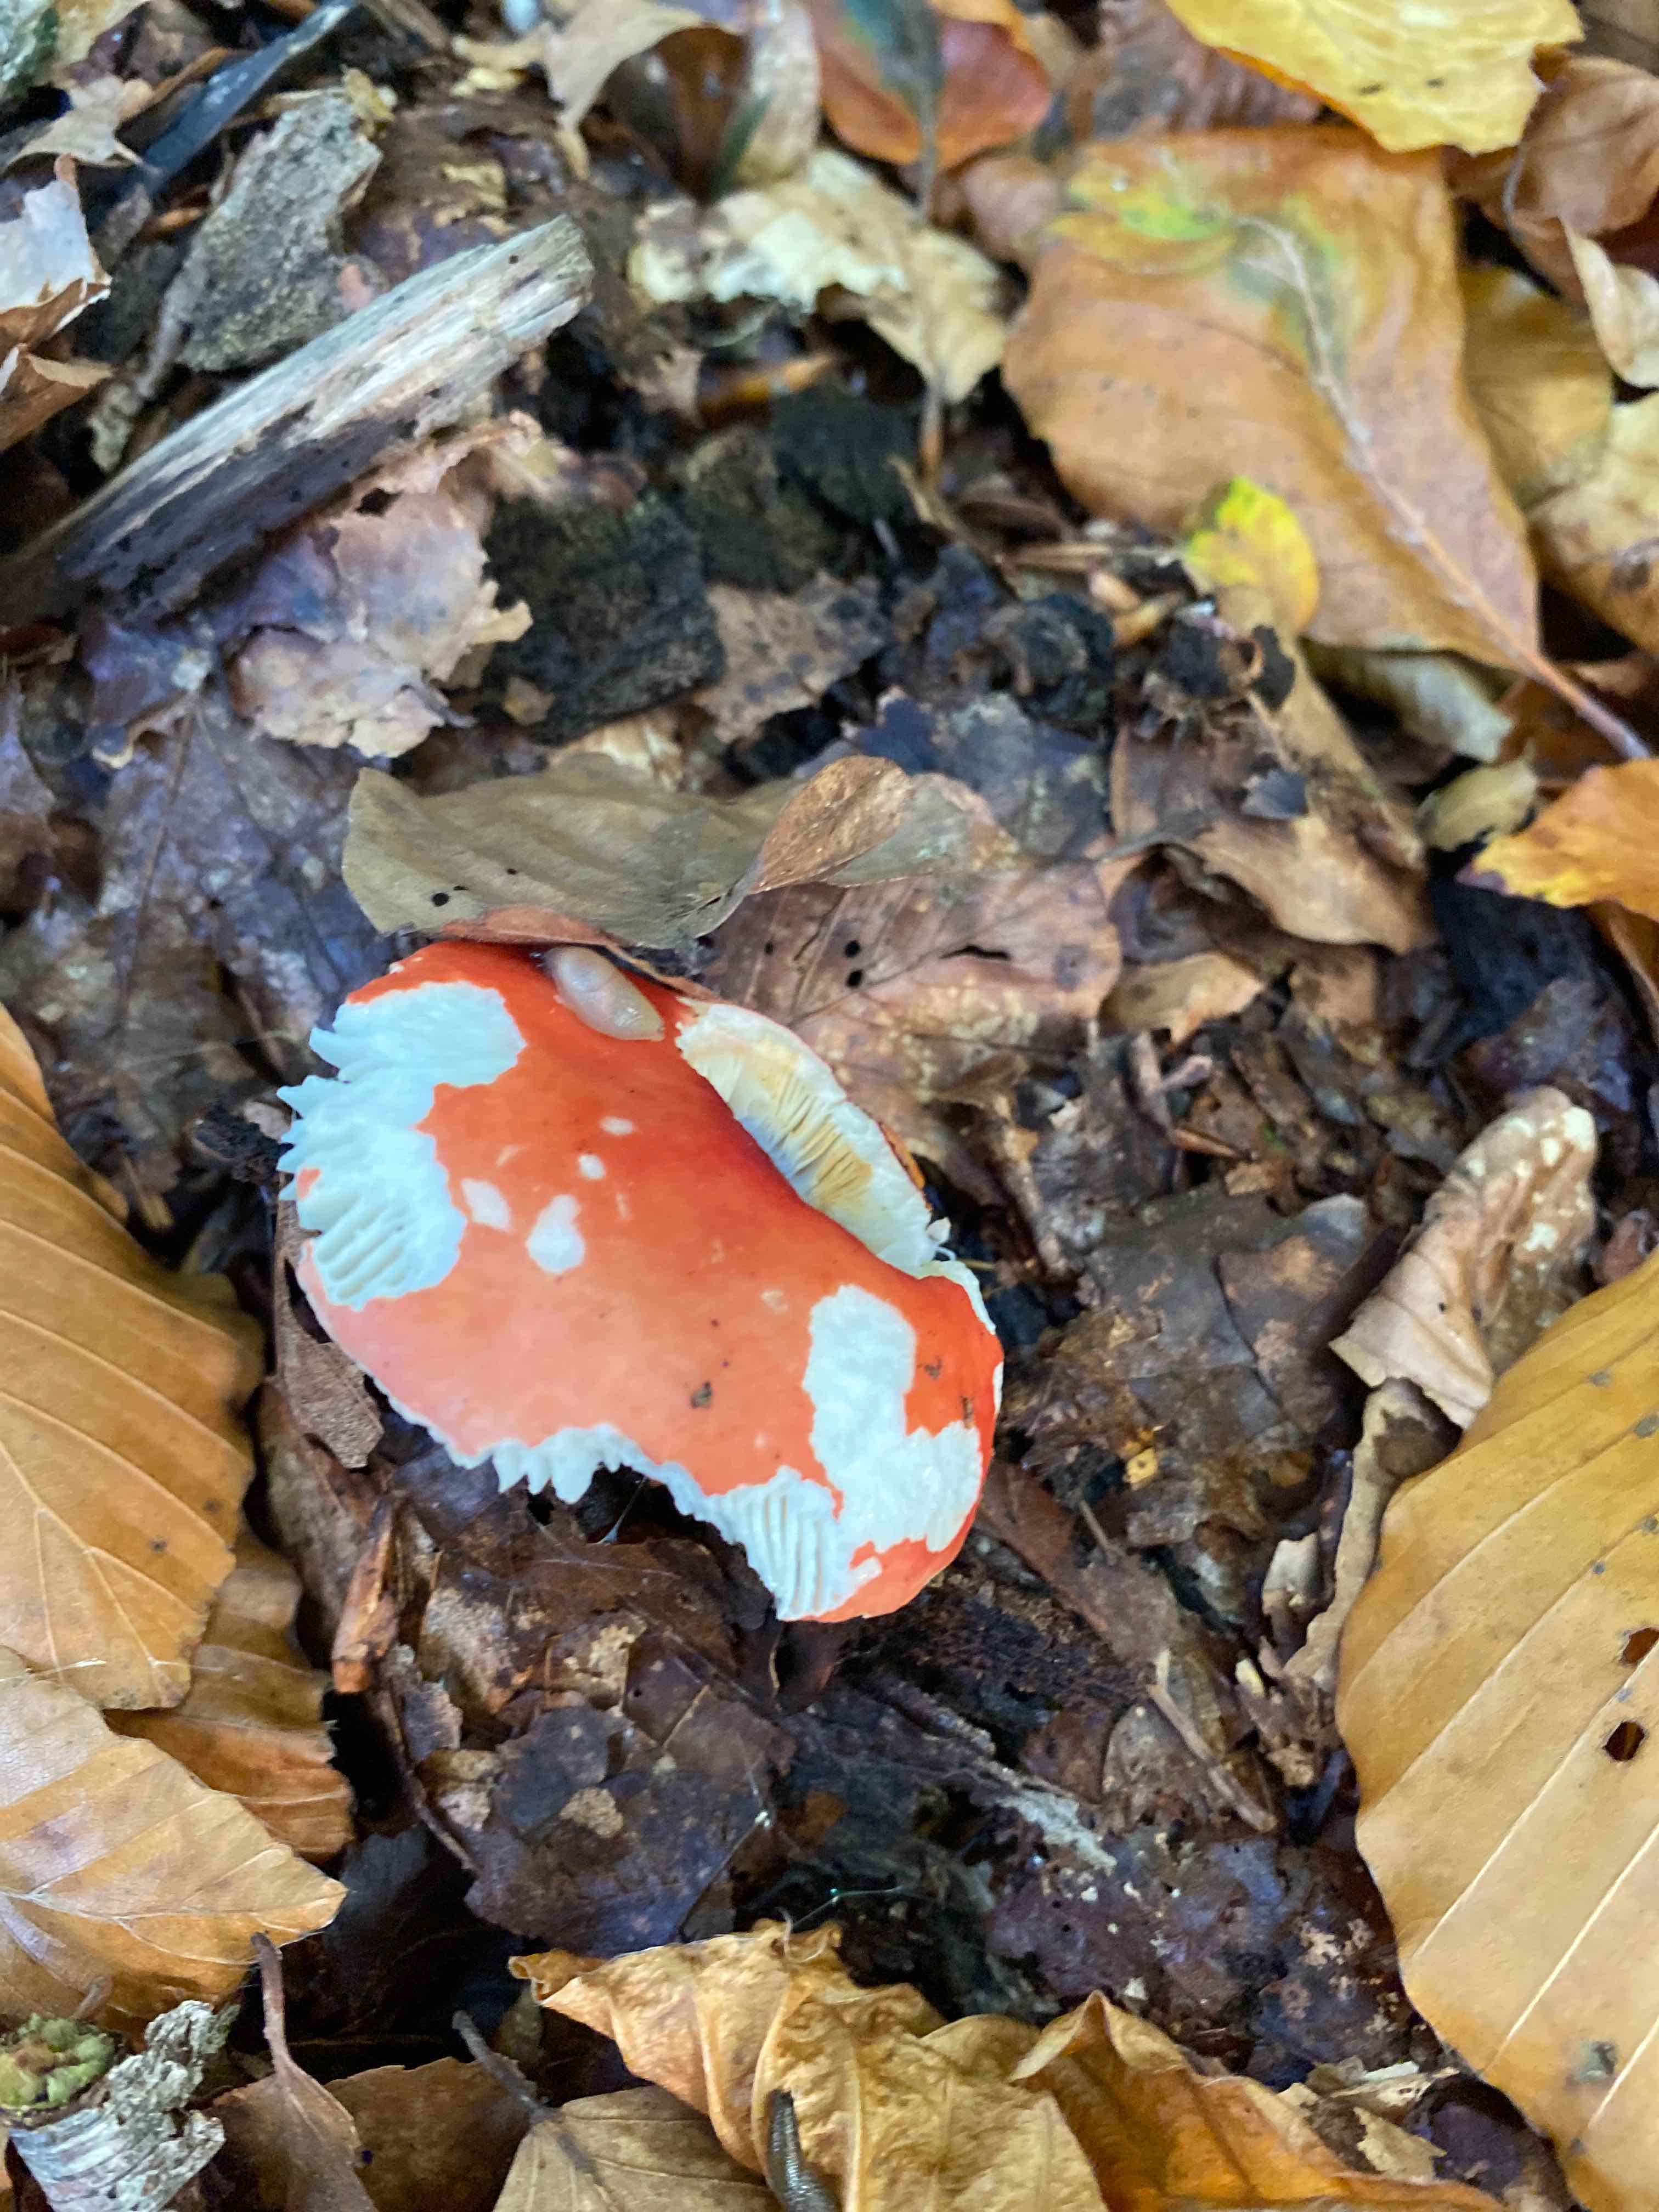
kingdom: Fungi
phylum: Basidiomycota
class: Agaricomycetes
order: Russulales
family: Russulaceae
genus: Russula
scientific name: Russula nobilis
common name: lille gift-skørhat
